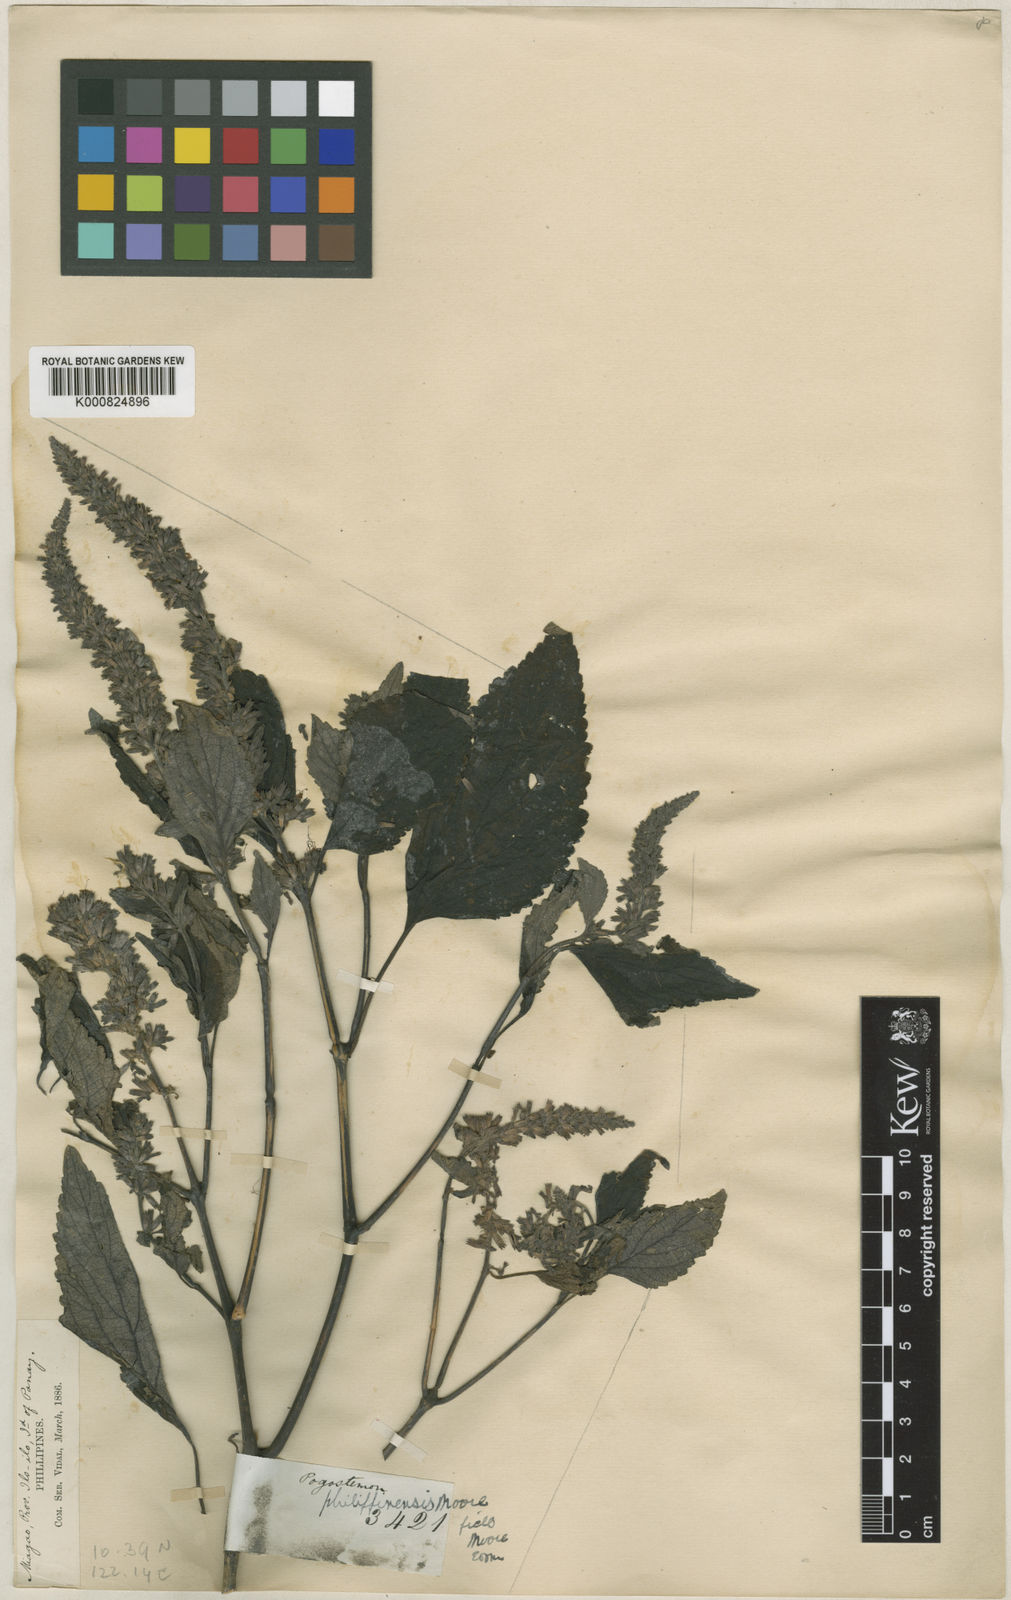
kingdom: Plantae
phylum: Tracheophyta
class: Magnoliopsida
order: Lamiales
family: Lamiaceae
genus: Pogostemon
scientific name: Pogostemon philippinensis
